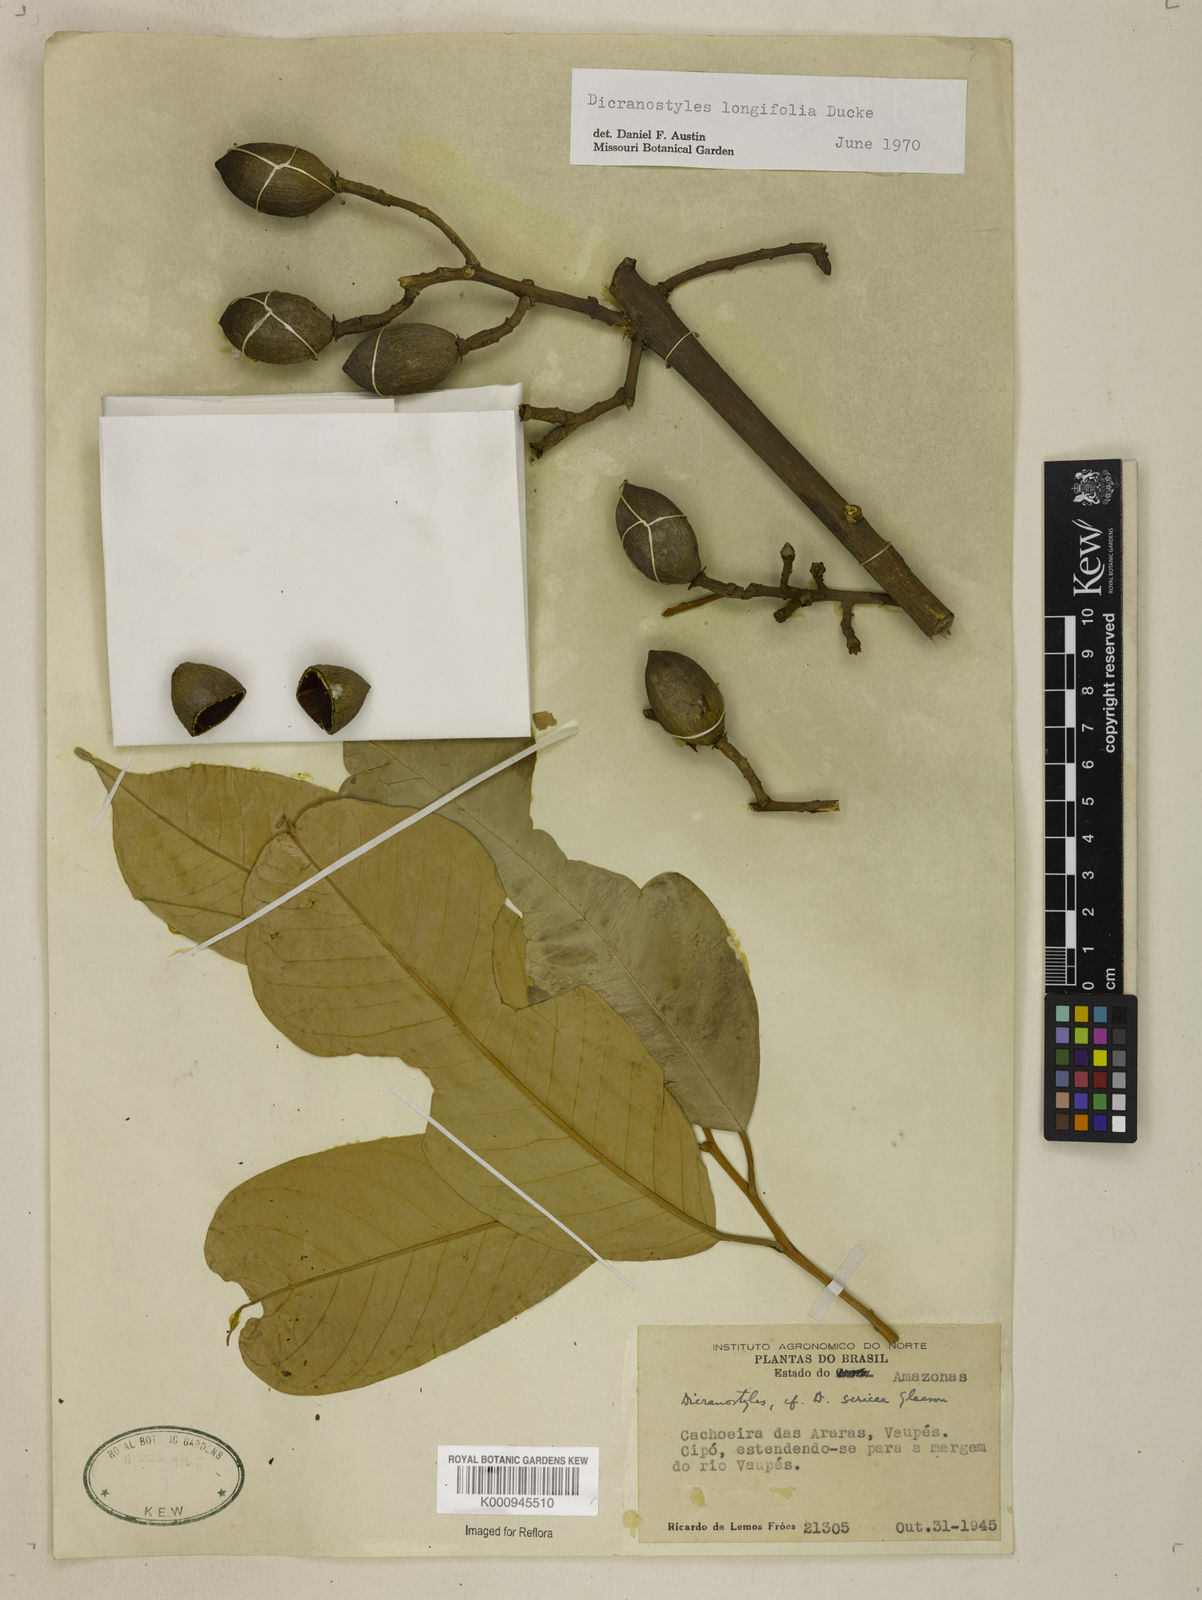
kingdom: Plantae
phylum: Tracheophyta
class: Magnoliopsida
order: Solanales
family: Convolvulaceae
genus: Dicranostyles
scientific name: Dicranostyles longifolia
